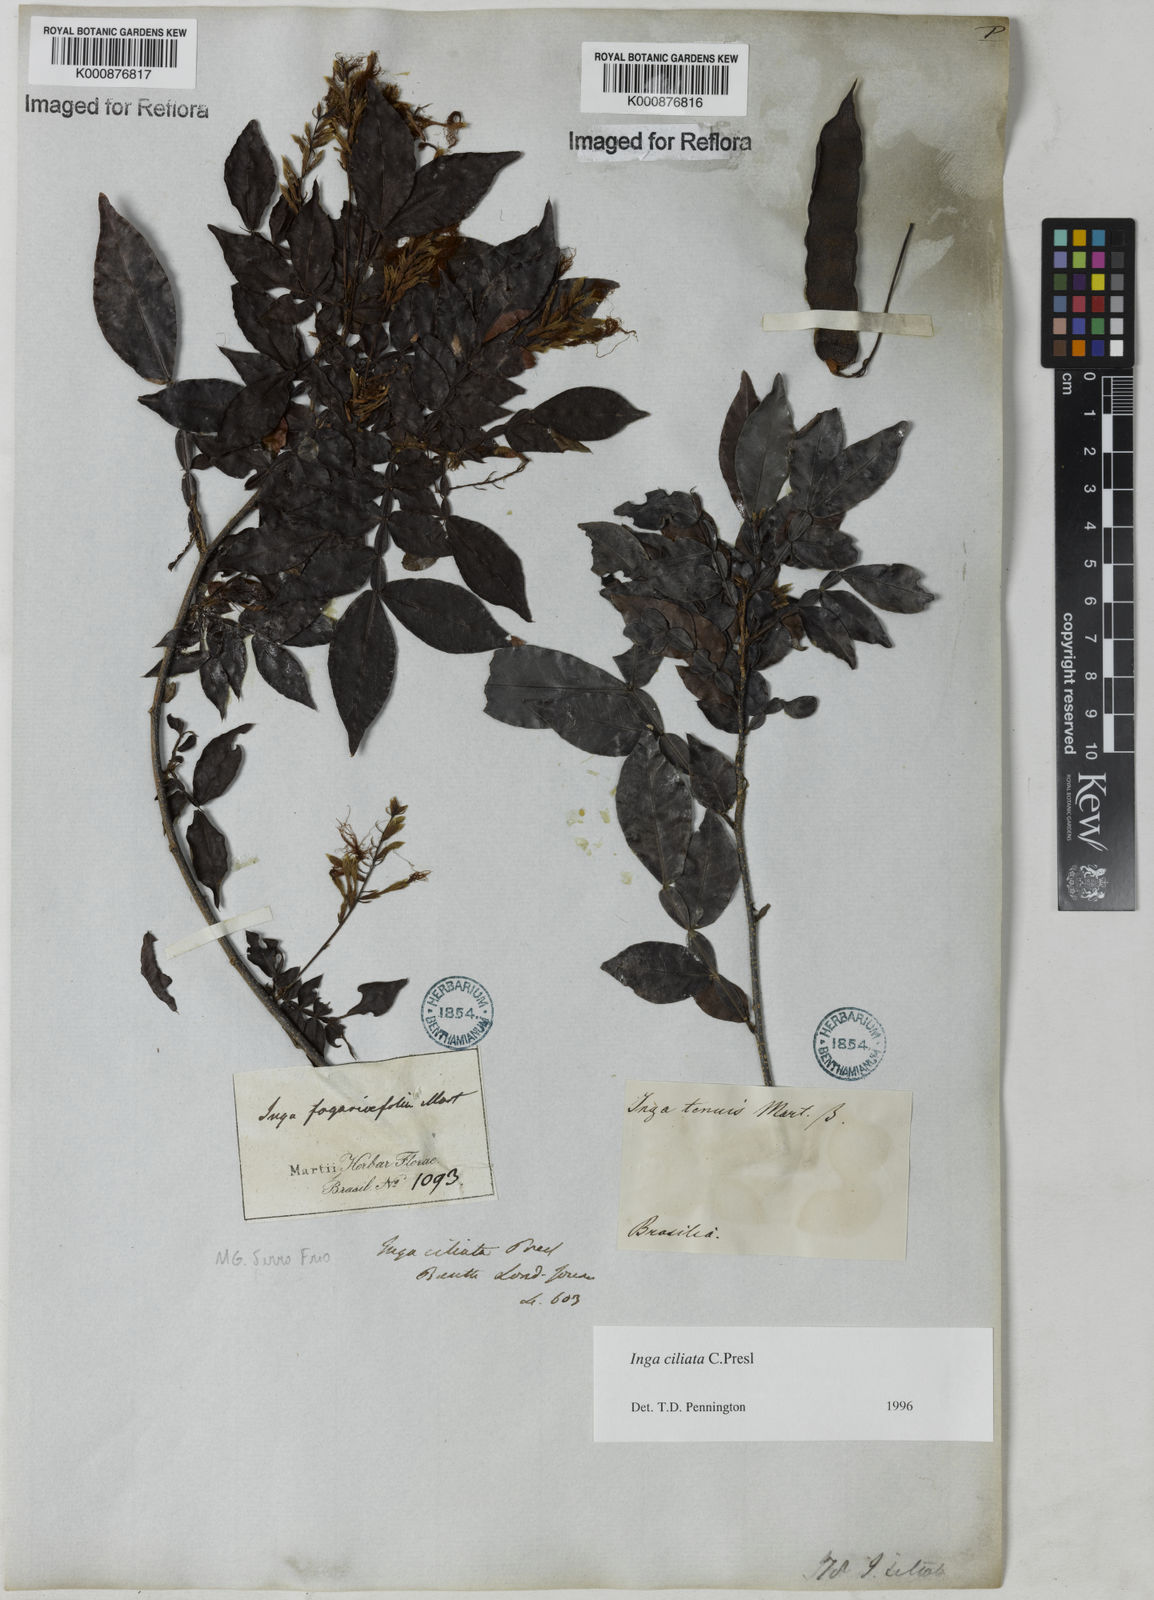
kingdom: Plantae
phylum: Tracheophyta
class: Magnoliopsida
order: Fabales
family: Fabaceae
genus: Inga
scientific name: Inga ciliata
